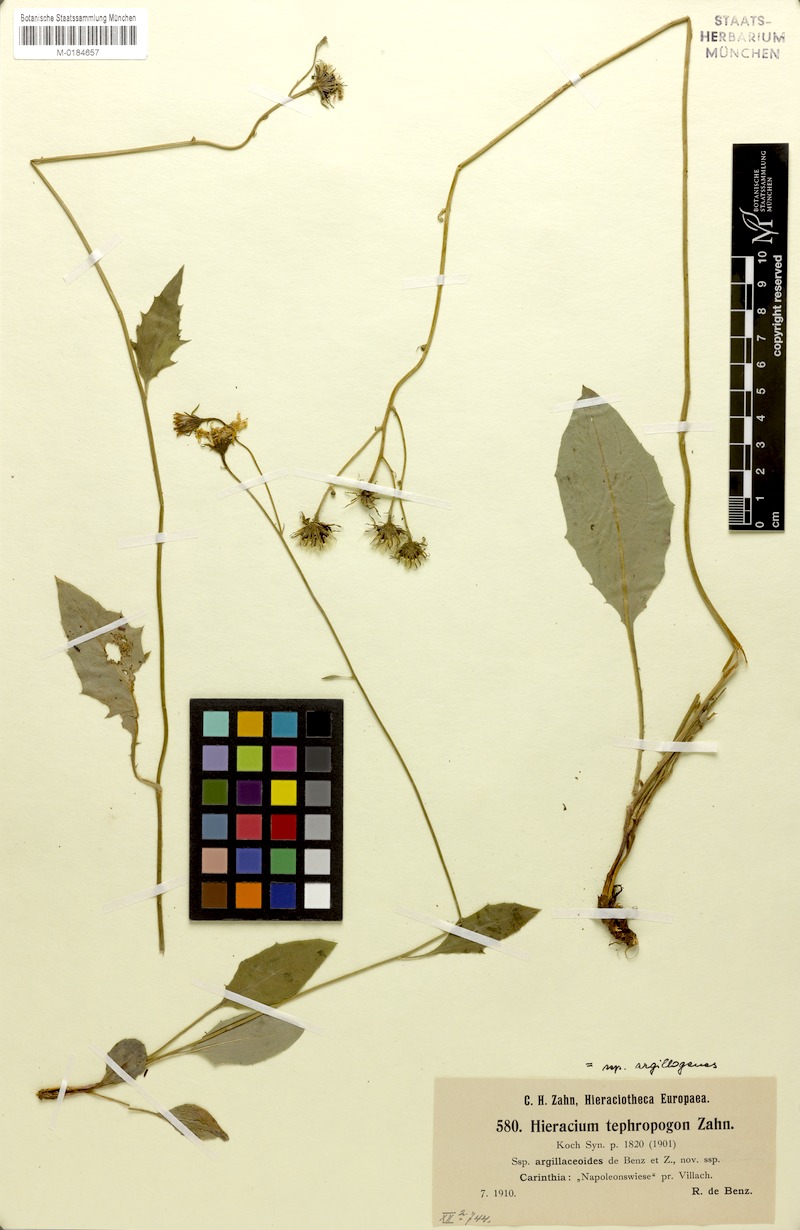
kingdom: Plantae
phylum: Tracheophyta
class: Magnoliopsida
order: Asterales
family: Asteraceae
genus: Hieracium
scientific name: Hieracium tephropogon
